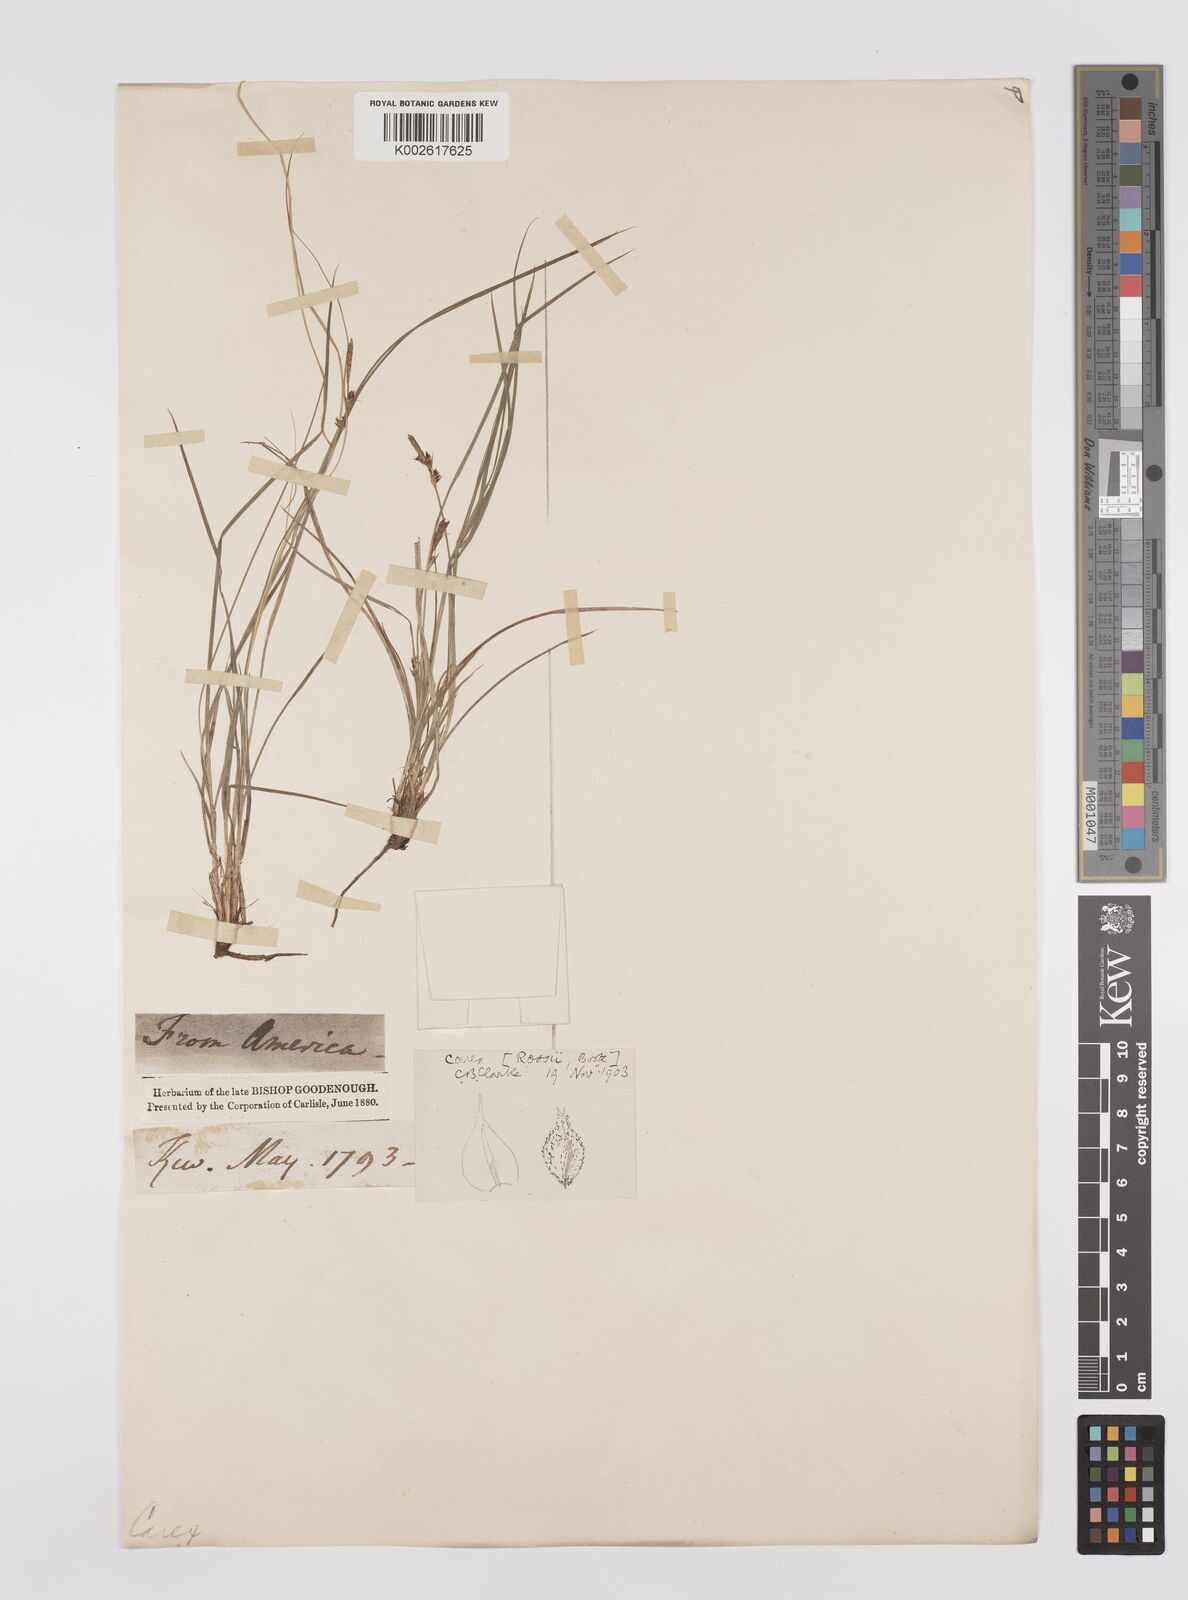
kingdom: Plantae
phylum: Tracheophyta
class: Liliopsida
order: Poales
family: Cyperaceae
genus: Carex
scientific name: Carex rossii
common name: Ross' sedge
